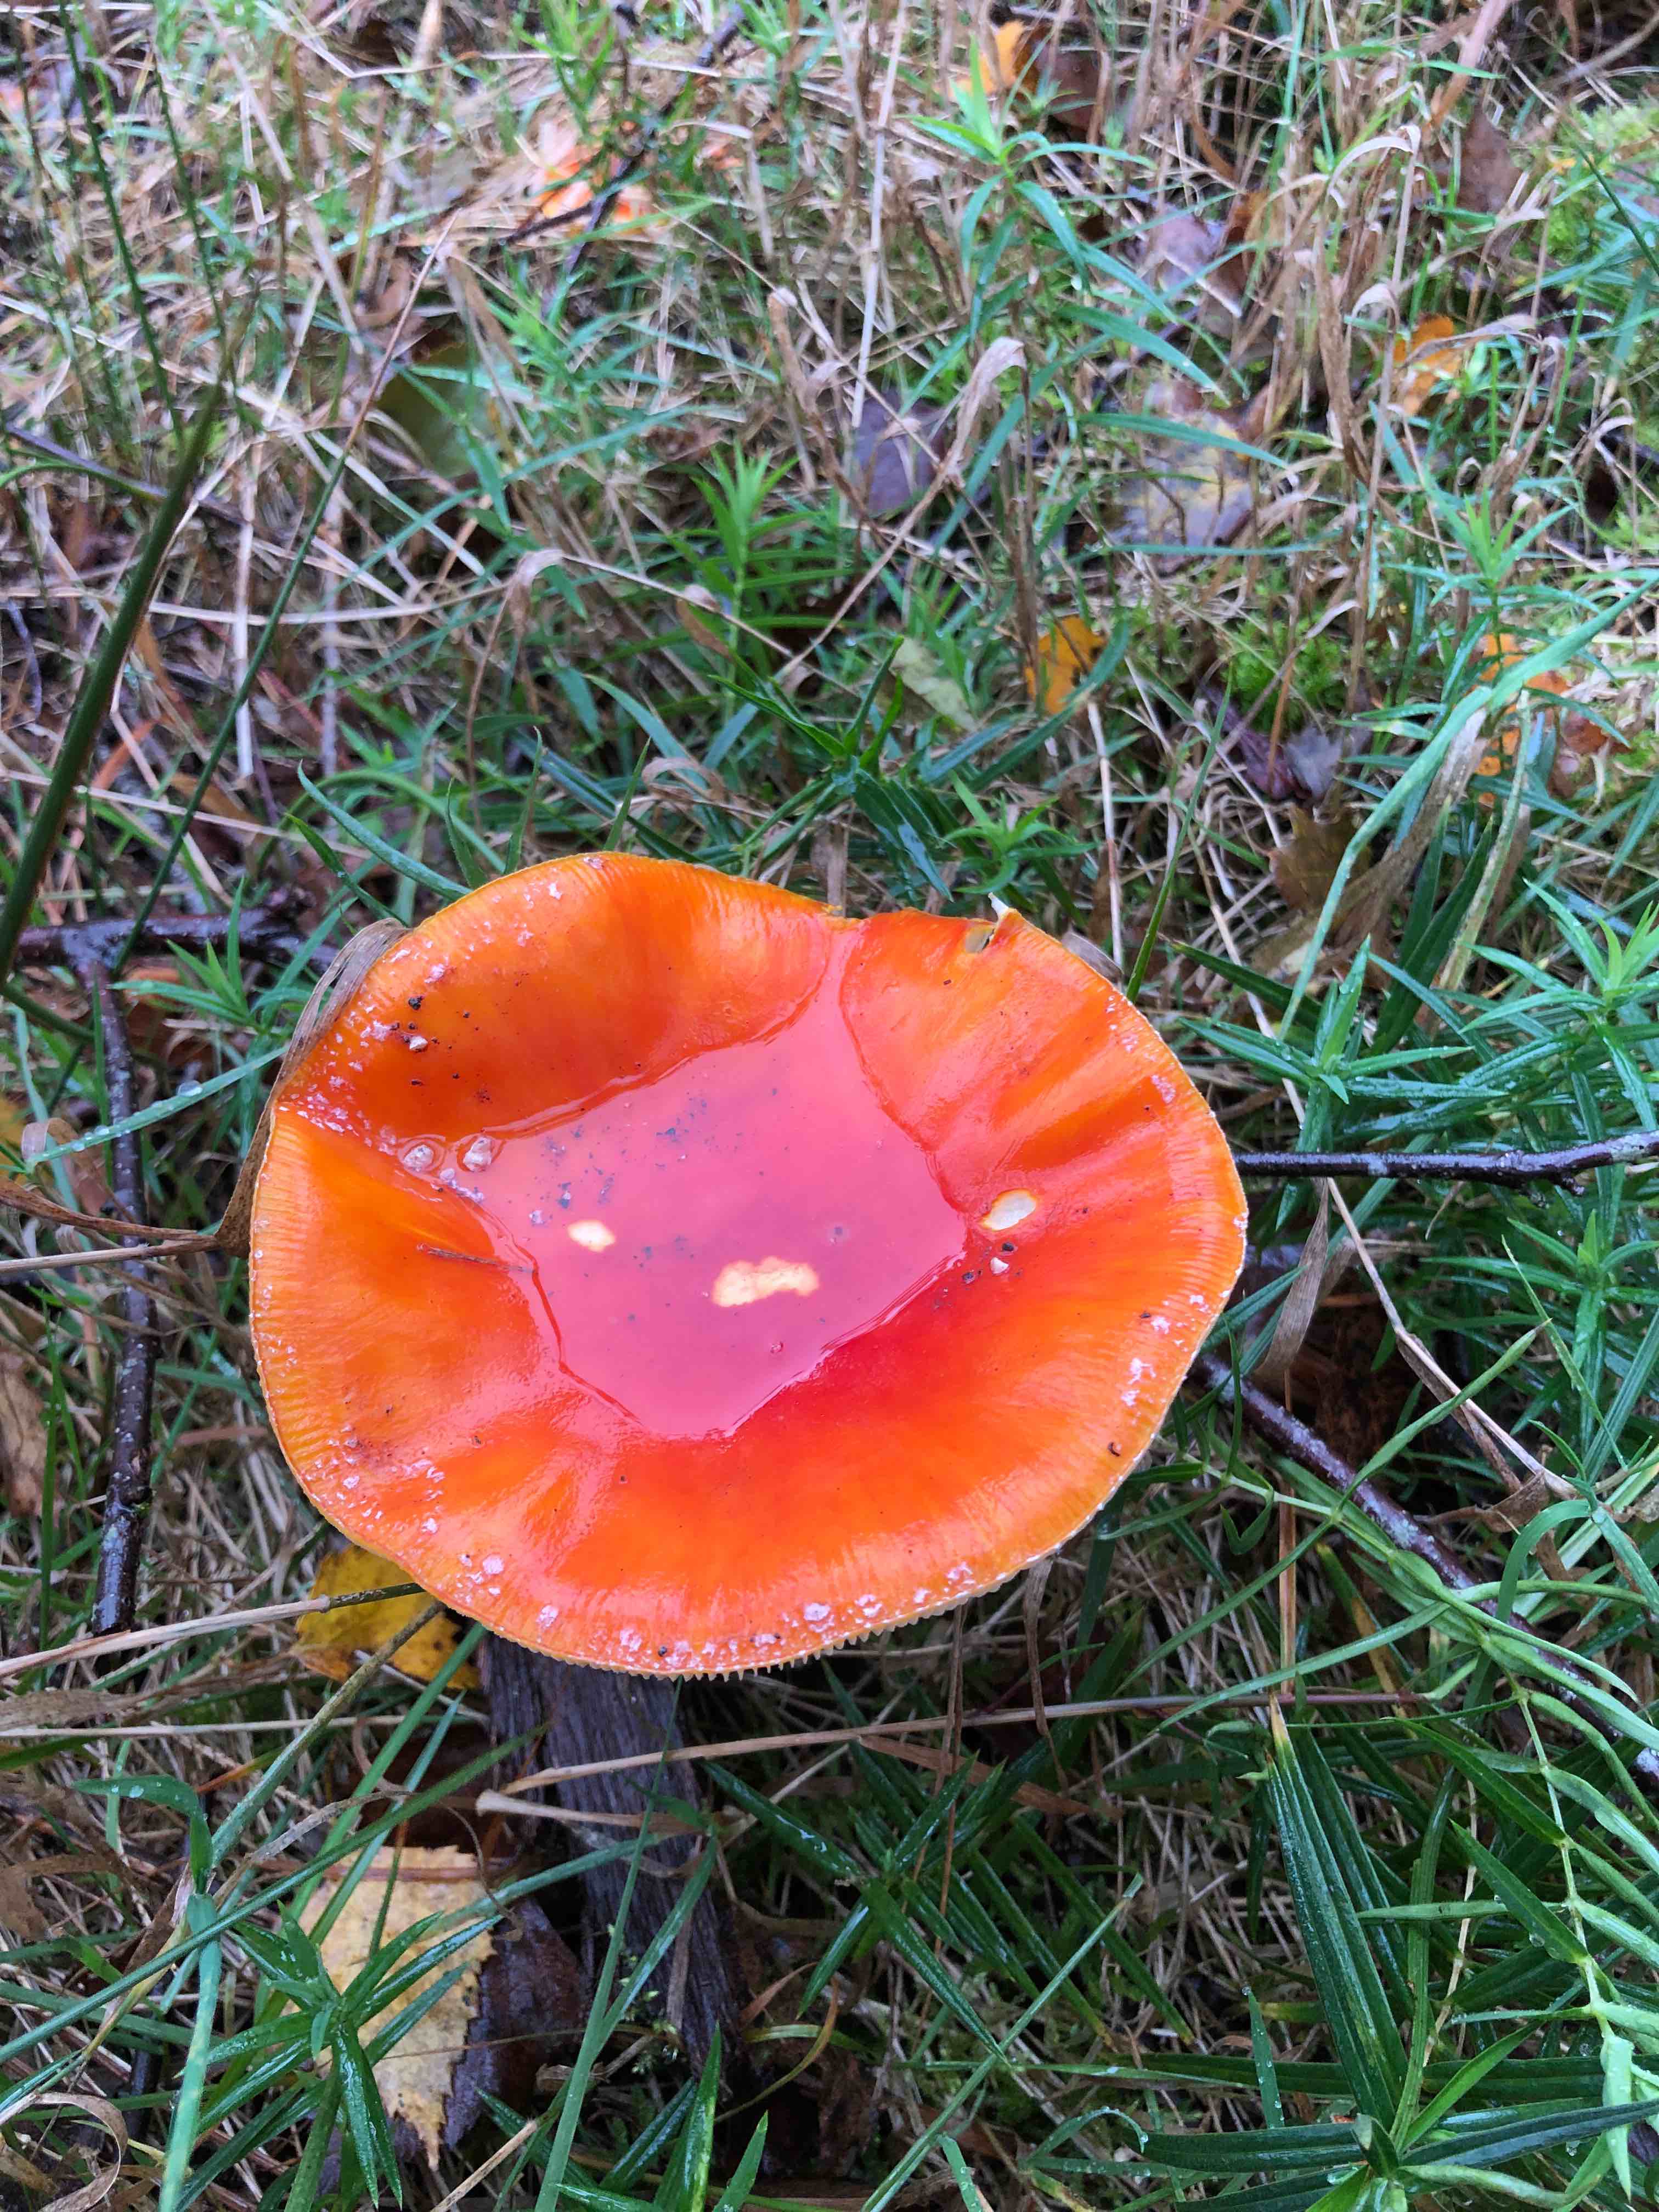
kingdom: Fungi
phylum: Basidiomycota
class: Agaricomycetes
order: Agaricales
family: Amanitaceae
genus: Amanita
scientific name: Amanita muscaria
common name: rød fluesvamp
